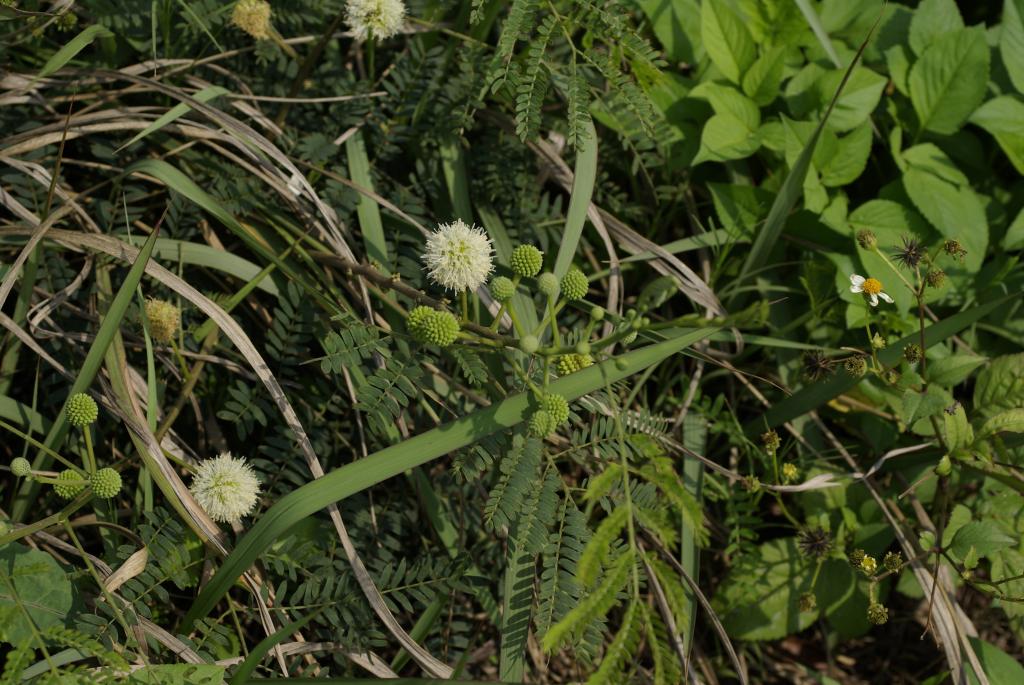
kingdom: Plantae
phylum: Tracheophyta
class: Magnoliopsida
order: Fabales
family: Fabaceae
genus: Leucaena
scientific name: Leucaena leucocephala
